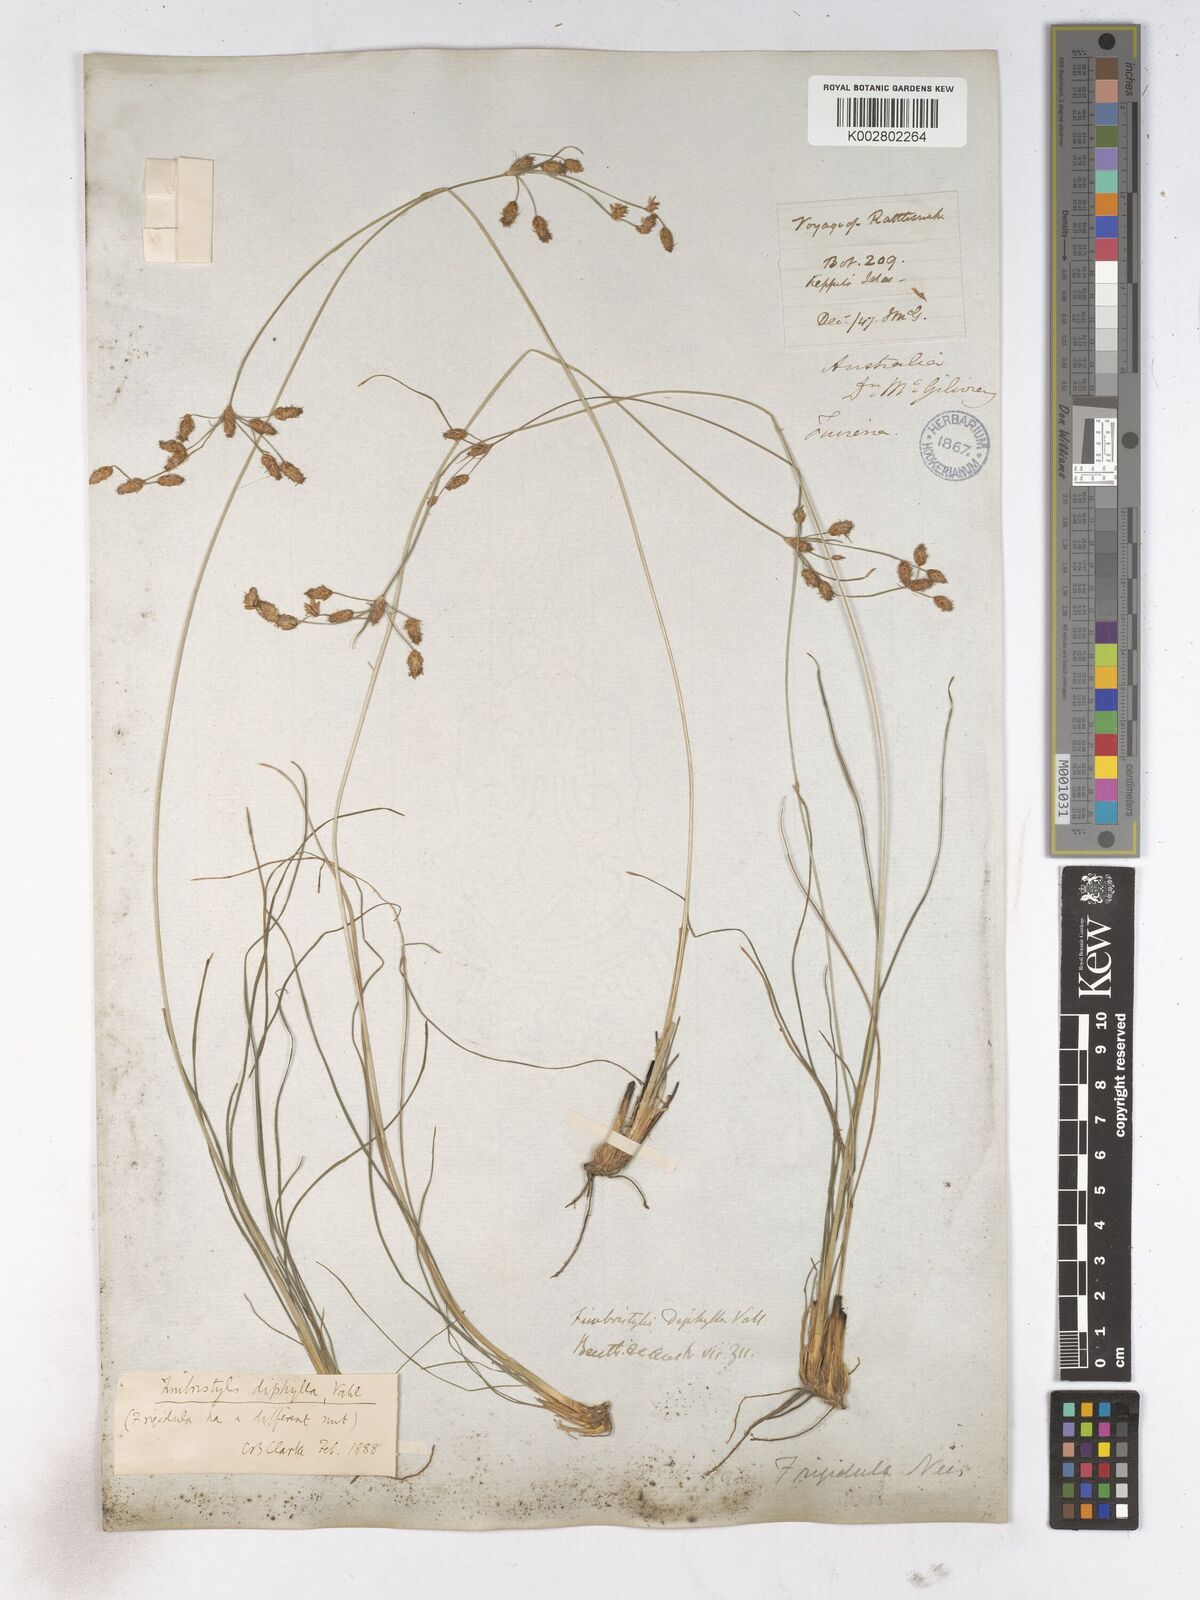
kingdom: Plantae
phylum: Tracheophyta
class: Liliopsida
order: Poales
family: Cyperaceae
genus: Fimbristylis
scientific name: Fimbristylis dichotoma
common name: Forked fimbry
